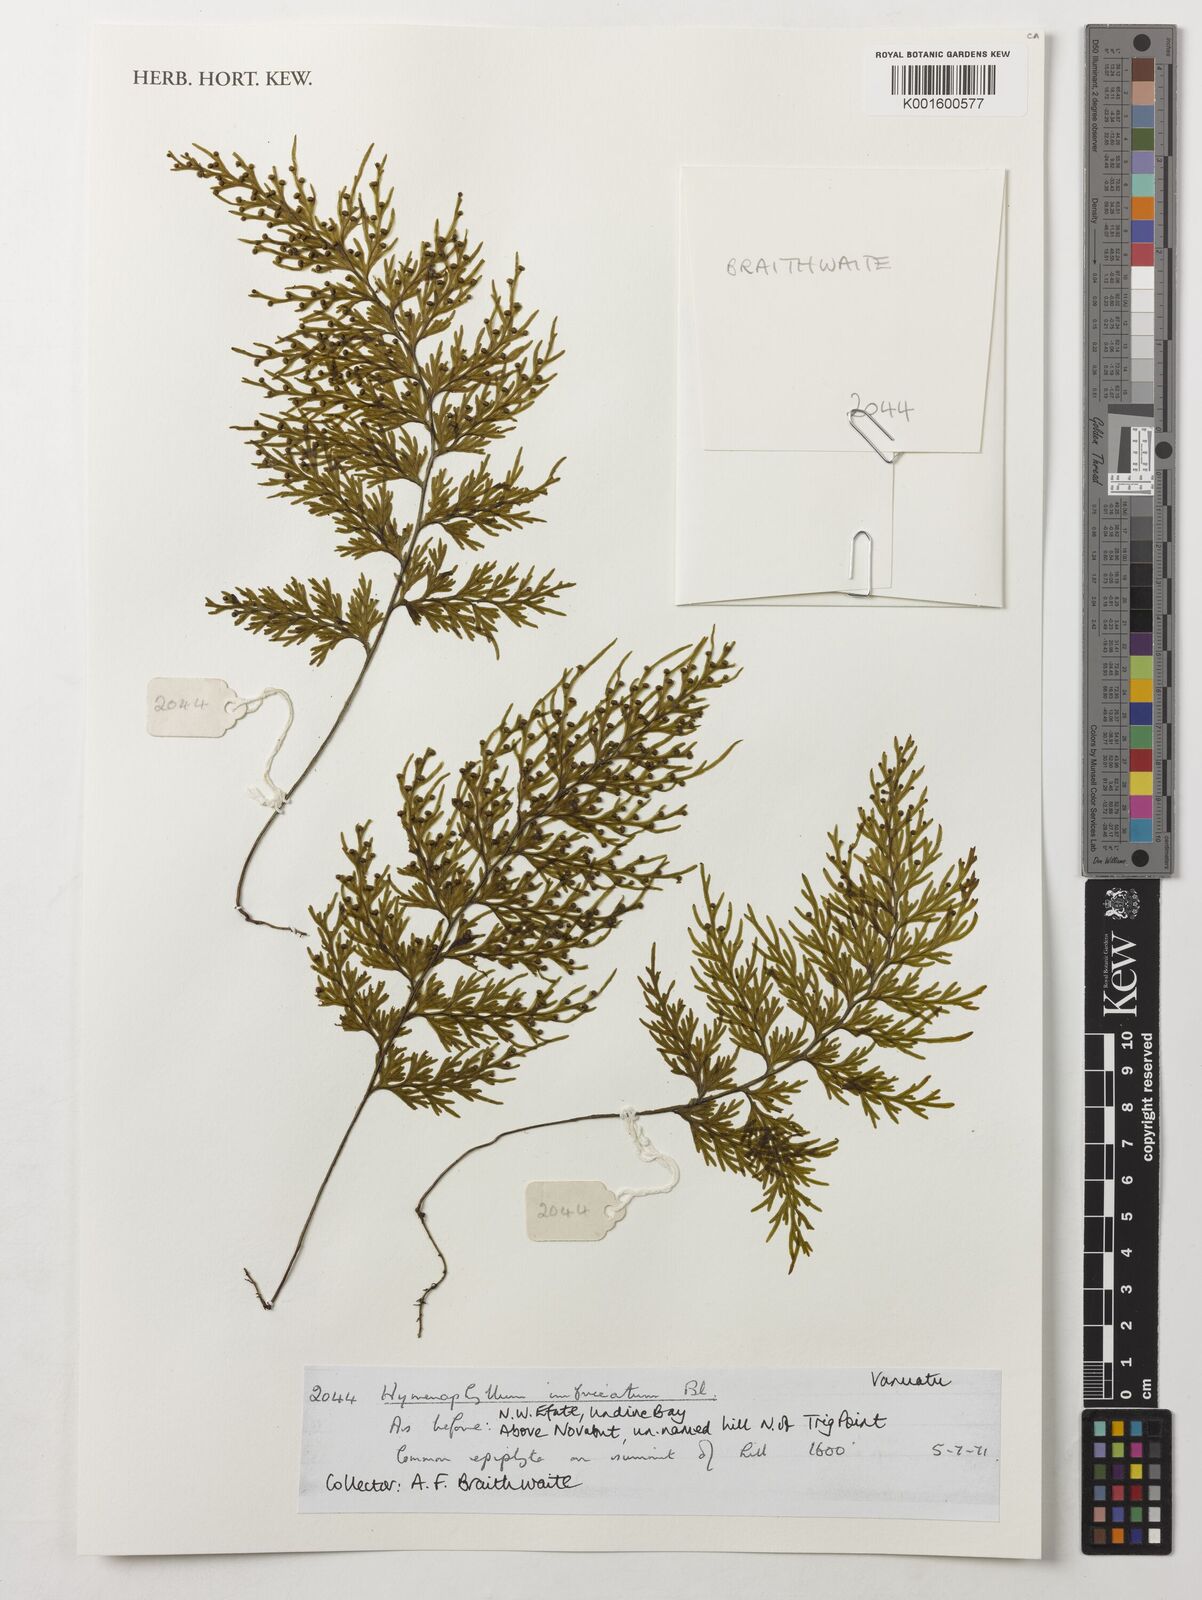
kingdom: Plantae
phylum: Tracheophyta
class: Polypodiopsida
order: Hymenophyllales
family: Hymenophyllaceae
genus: Hymenophyllum
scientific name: Hymenophyllum imbricatum
